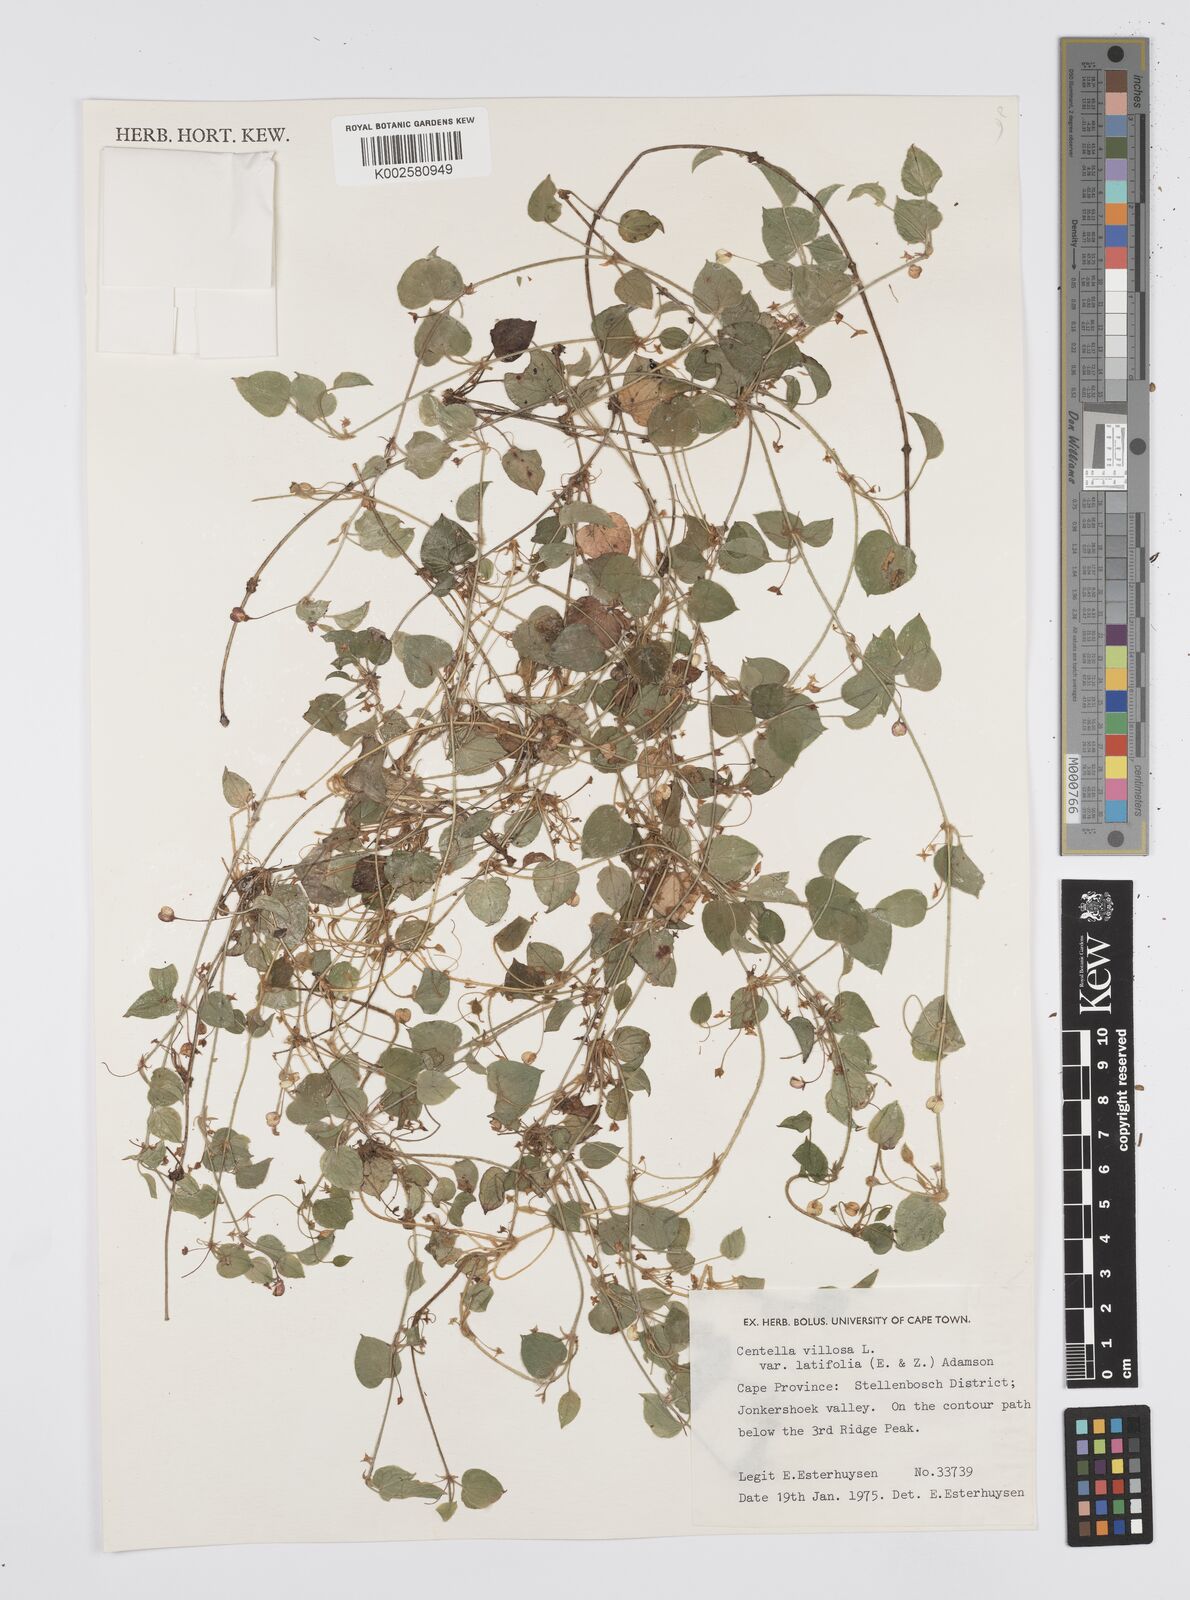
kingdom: Plantae
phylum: Tracheophyta
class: Magnoliopsida
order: Apiales
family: Apiaceae
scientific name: Apiaceae
